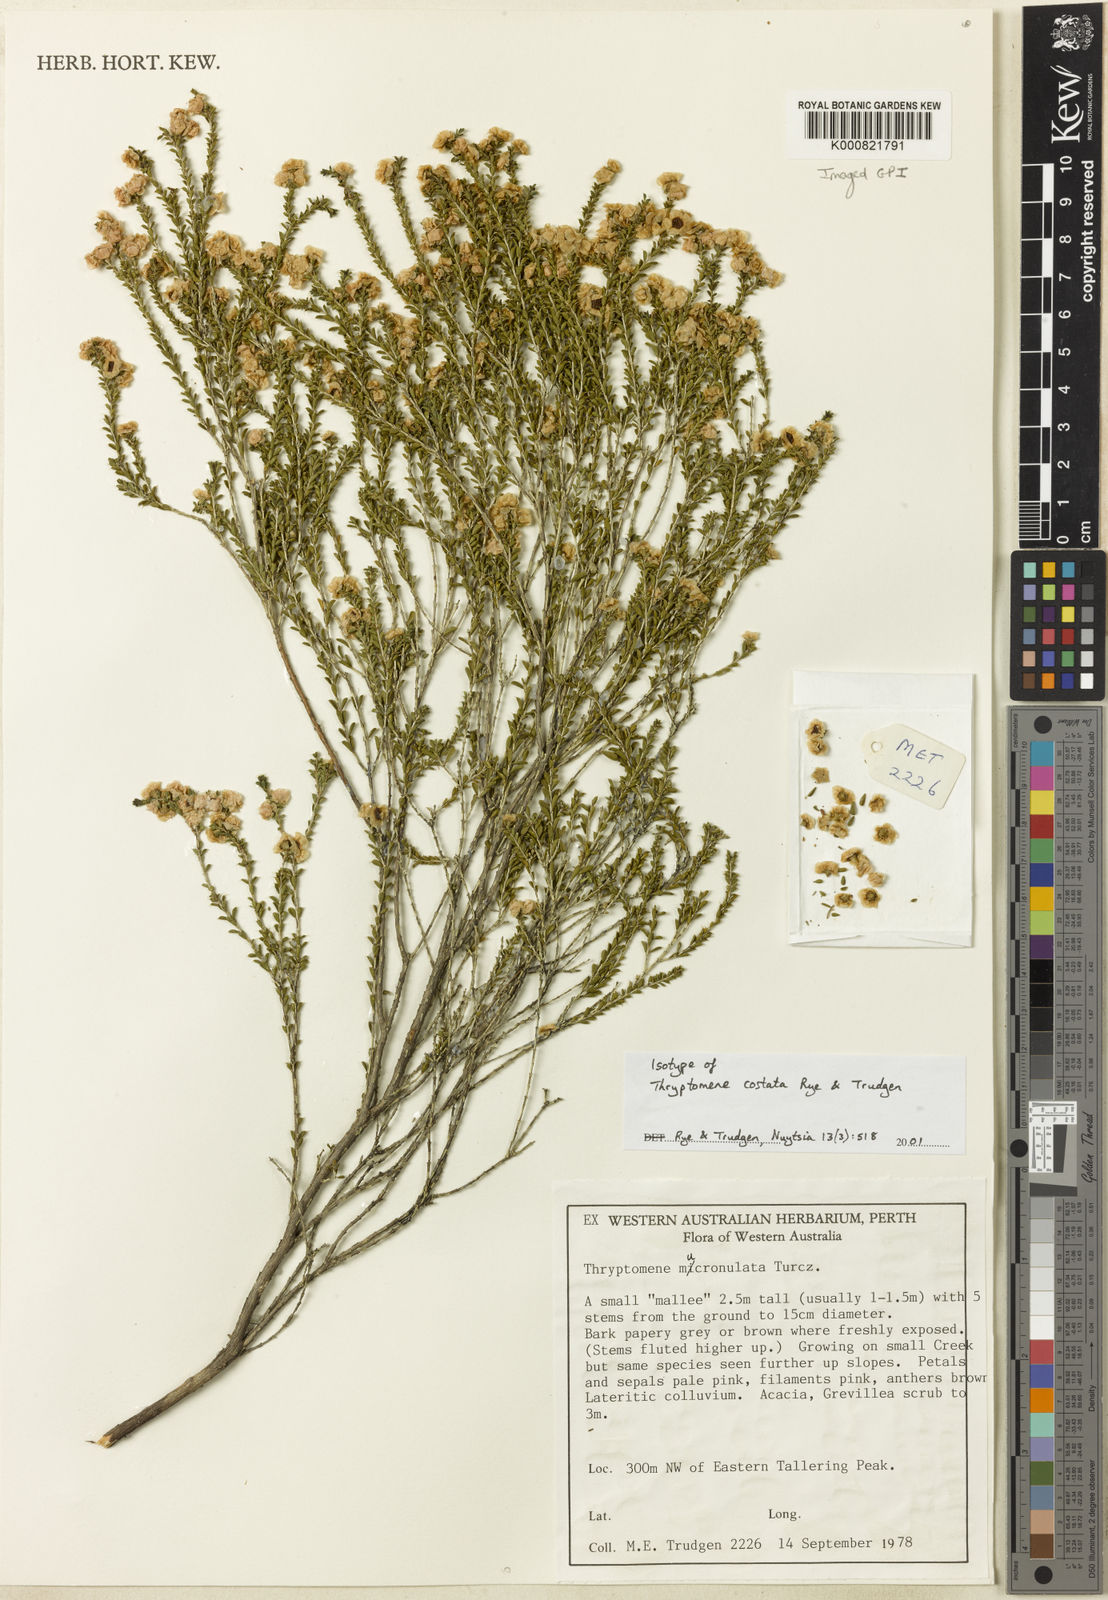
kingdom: Plantae
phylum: Tracheophyta
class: Magnoliopsida
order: Myrtales
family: Myrtaceae
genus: Thryptomene
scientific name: Thryptomene costata
